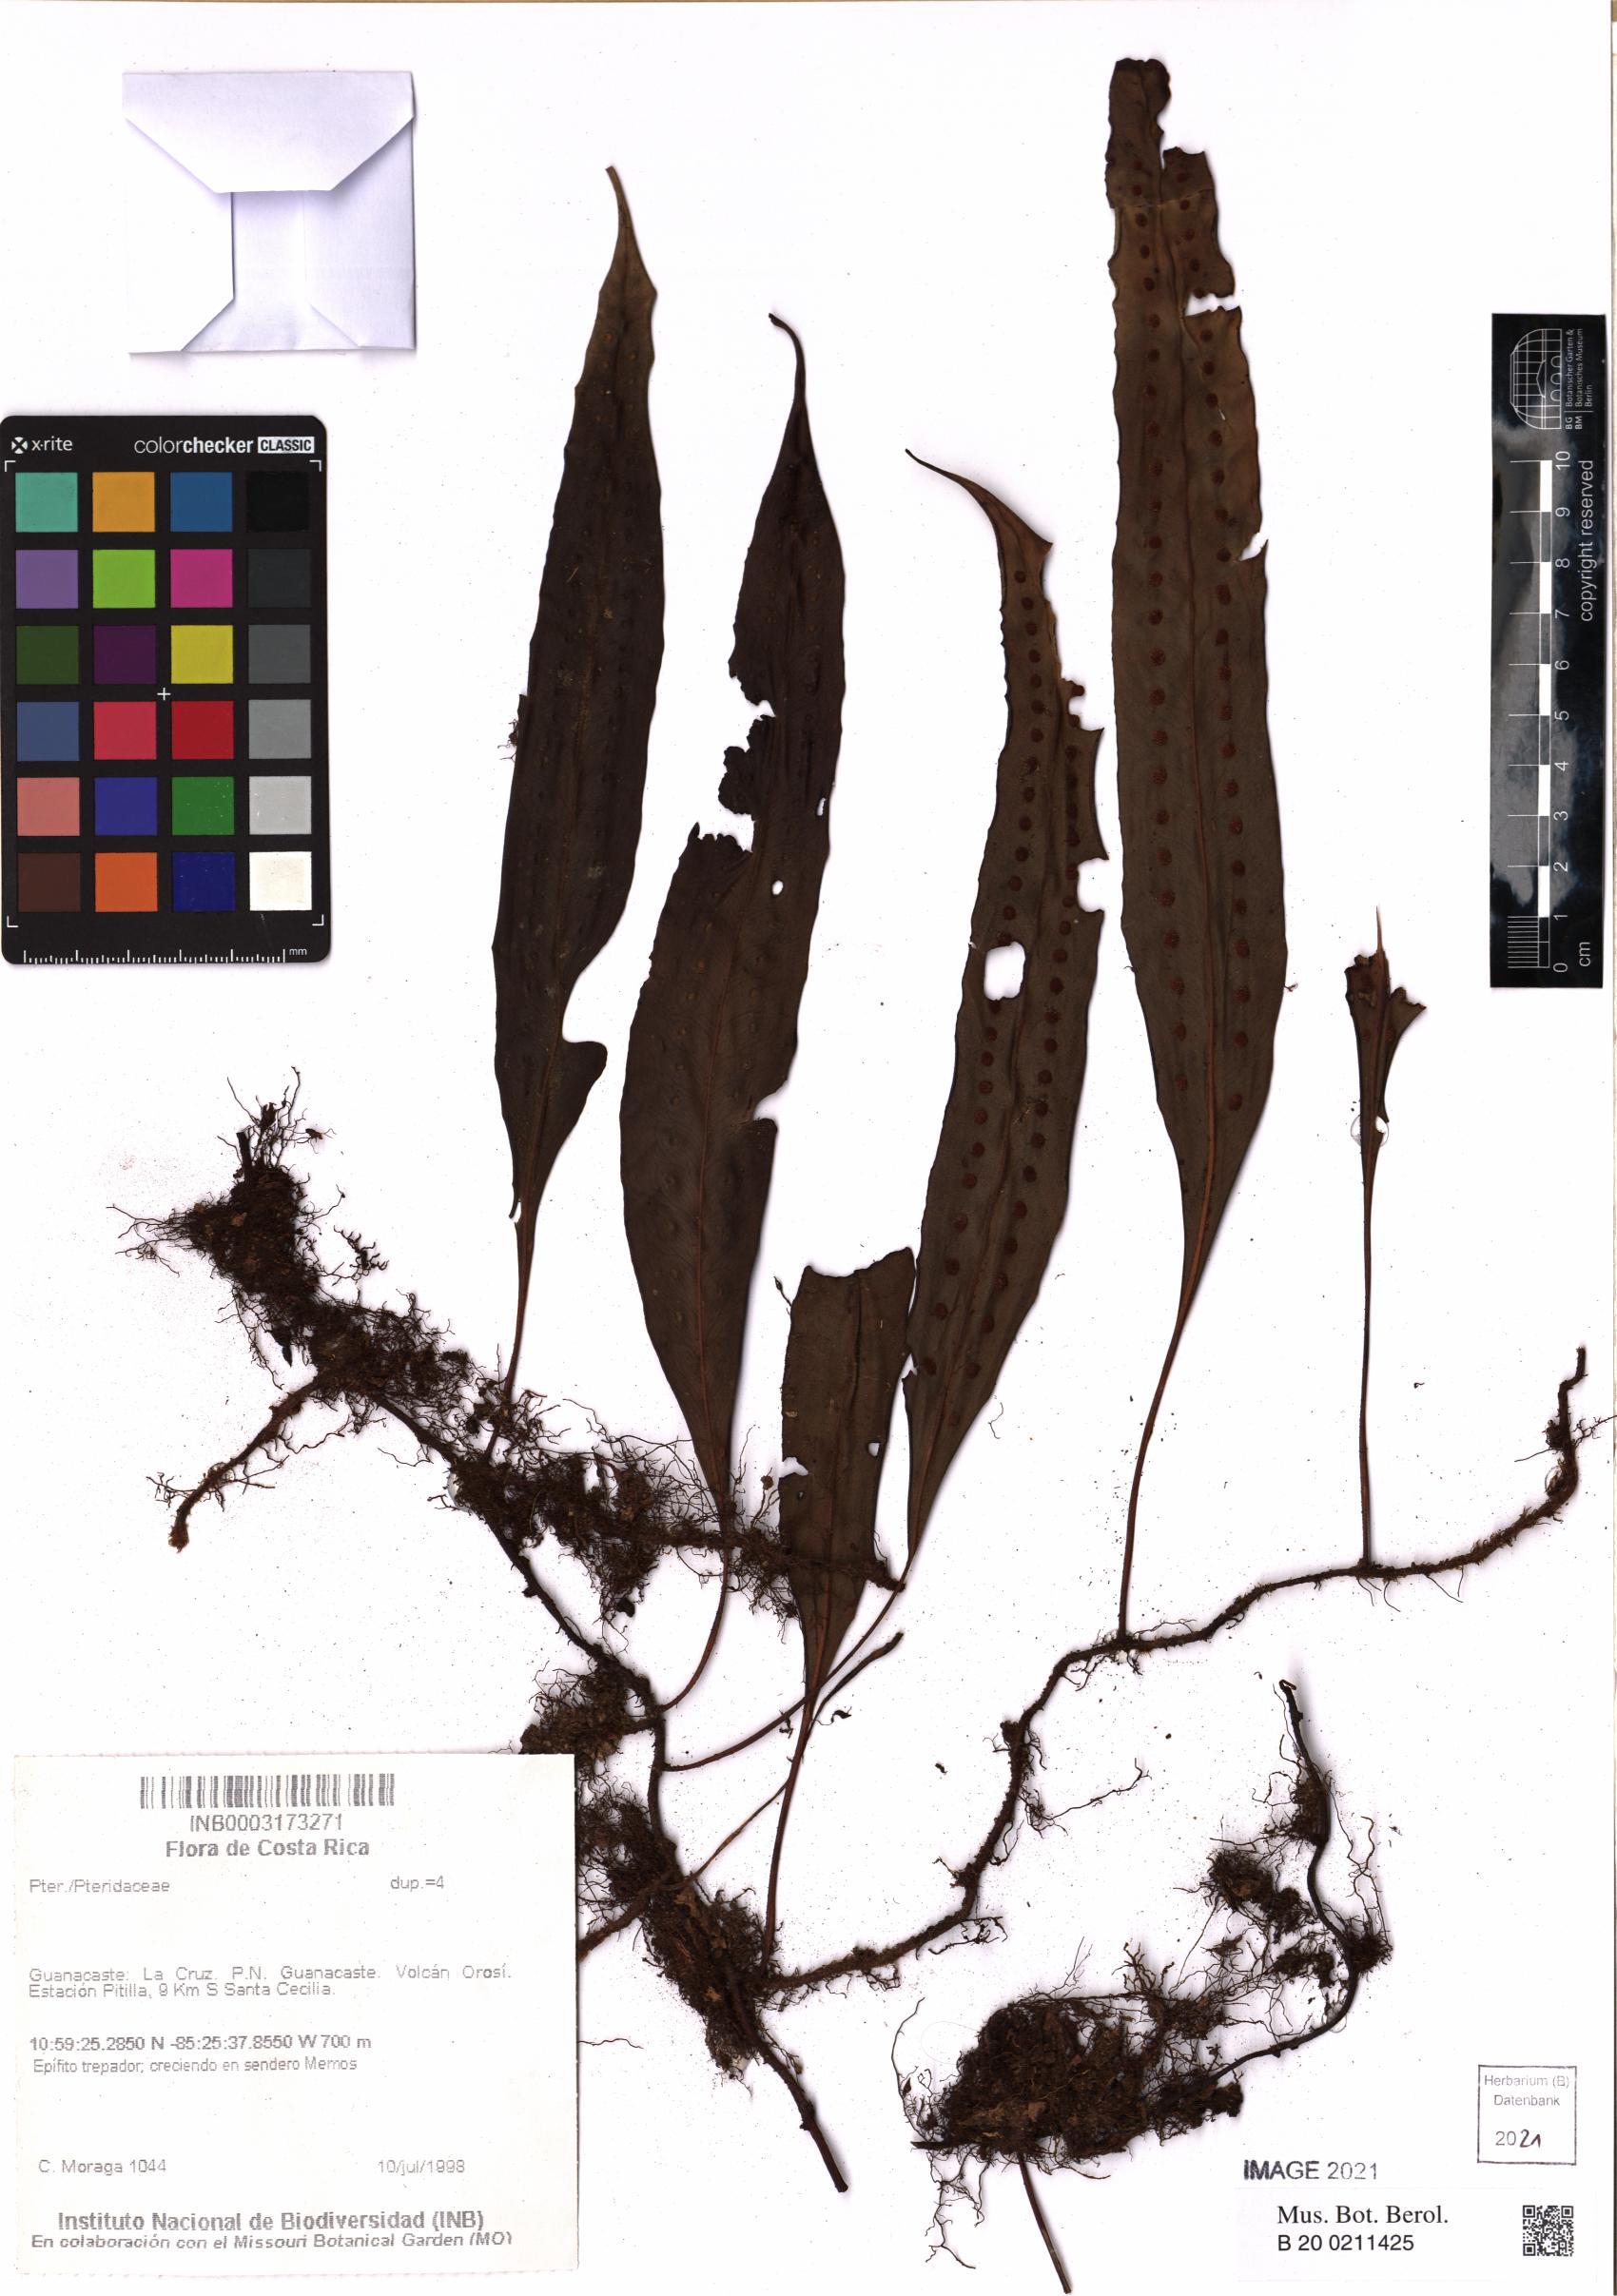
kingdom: Plantae
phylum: Tracheophyta
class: Polypodiopsida
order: Polypodiales
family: Pteridaceae
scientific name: Pteridaceae
